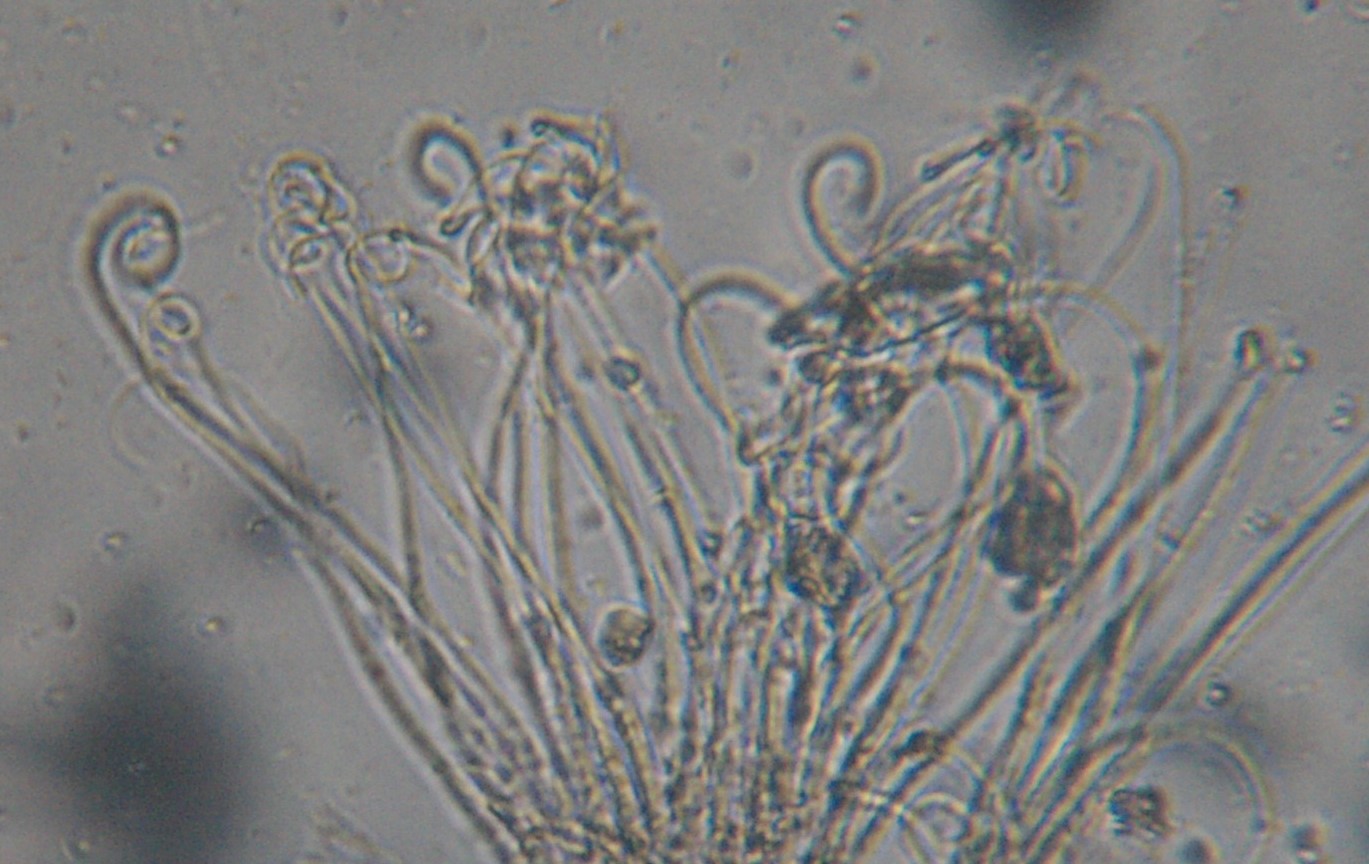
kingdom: Fungi
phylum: Ascomycota
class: Leotiomycetes
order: Rhytismatales
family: Rhytismataceae
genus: Colpoma
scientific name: Colpoma quercinum
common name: ege-sprækkeskive
